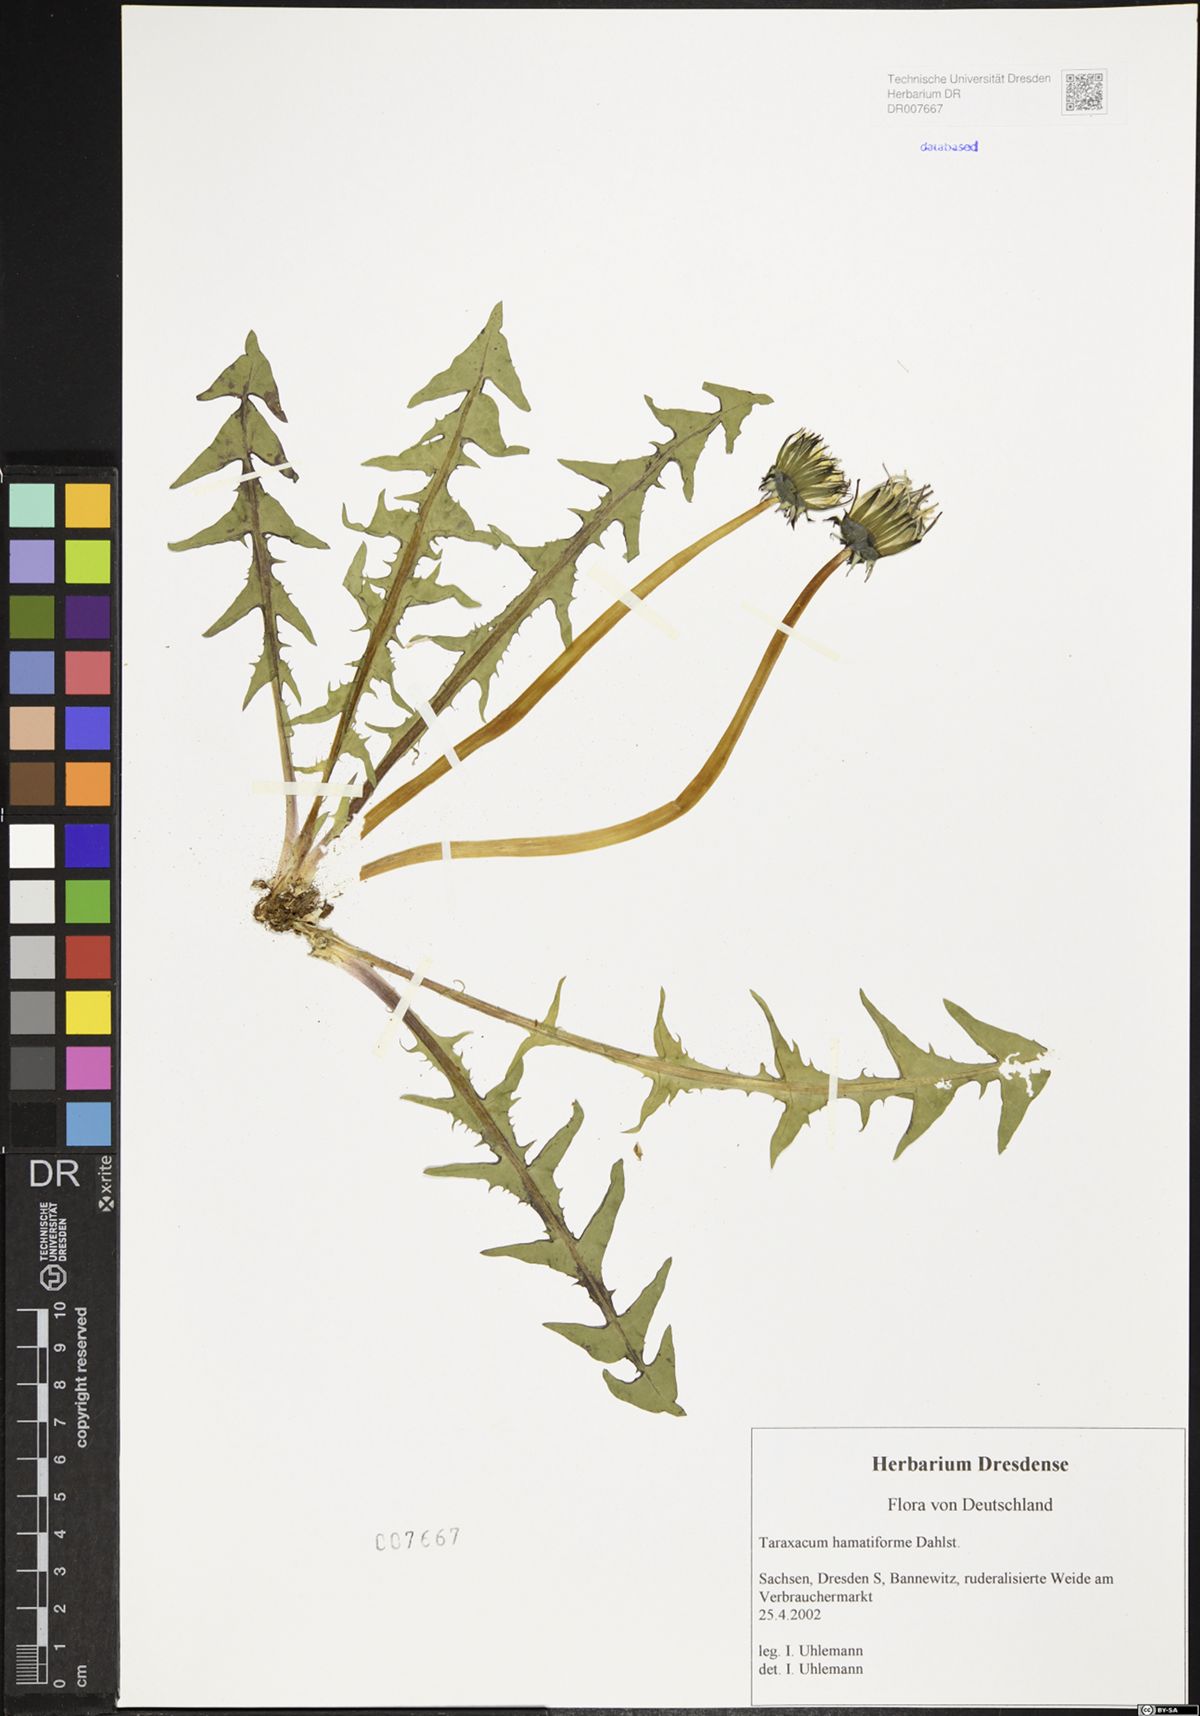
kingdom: Plantae
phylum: Tracheophyta
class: Magnoliopsida
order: Asterales
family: Asteraceae
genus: Taraxacum
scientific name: Taraxacum hamatiforme
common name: Asymmetrical hook-lobed dandelion
